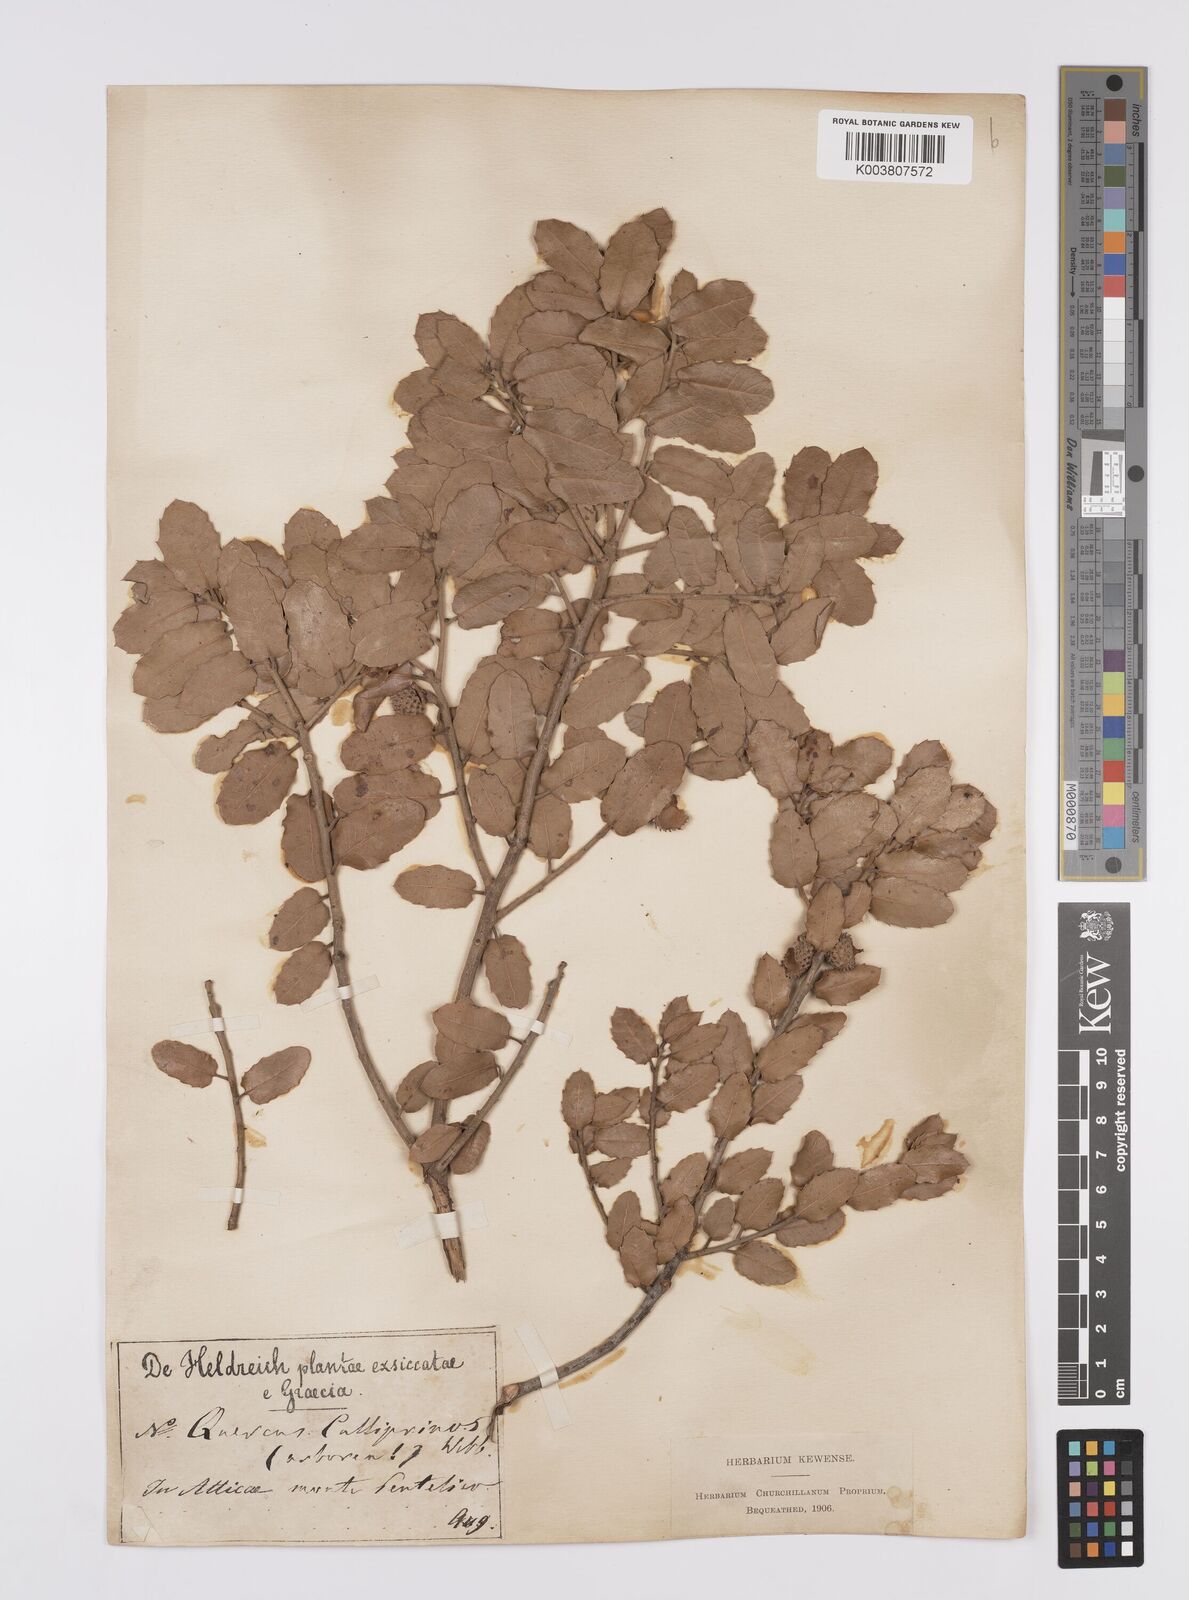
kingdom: Plantae
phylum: Tracheophyta
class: Magnoliopsida
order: Fagales
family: Fagaceae
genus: Quercus
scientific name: Quercus coccifera
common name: Kermes oak
